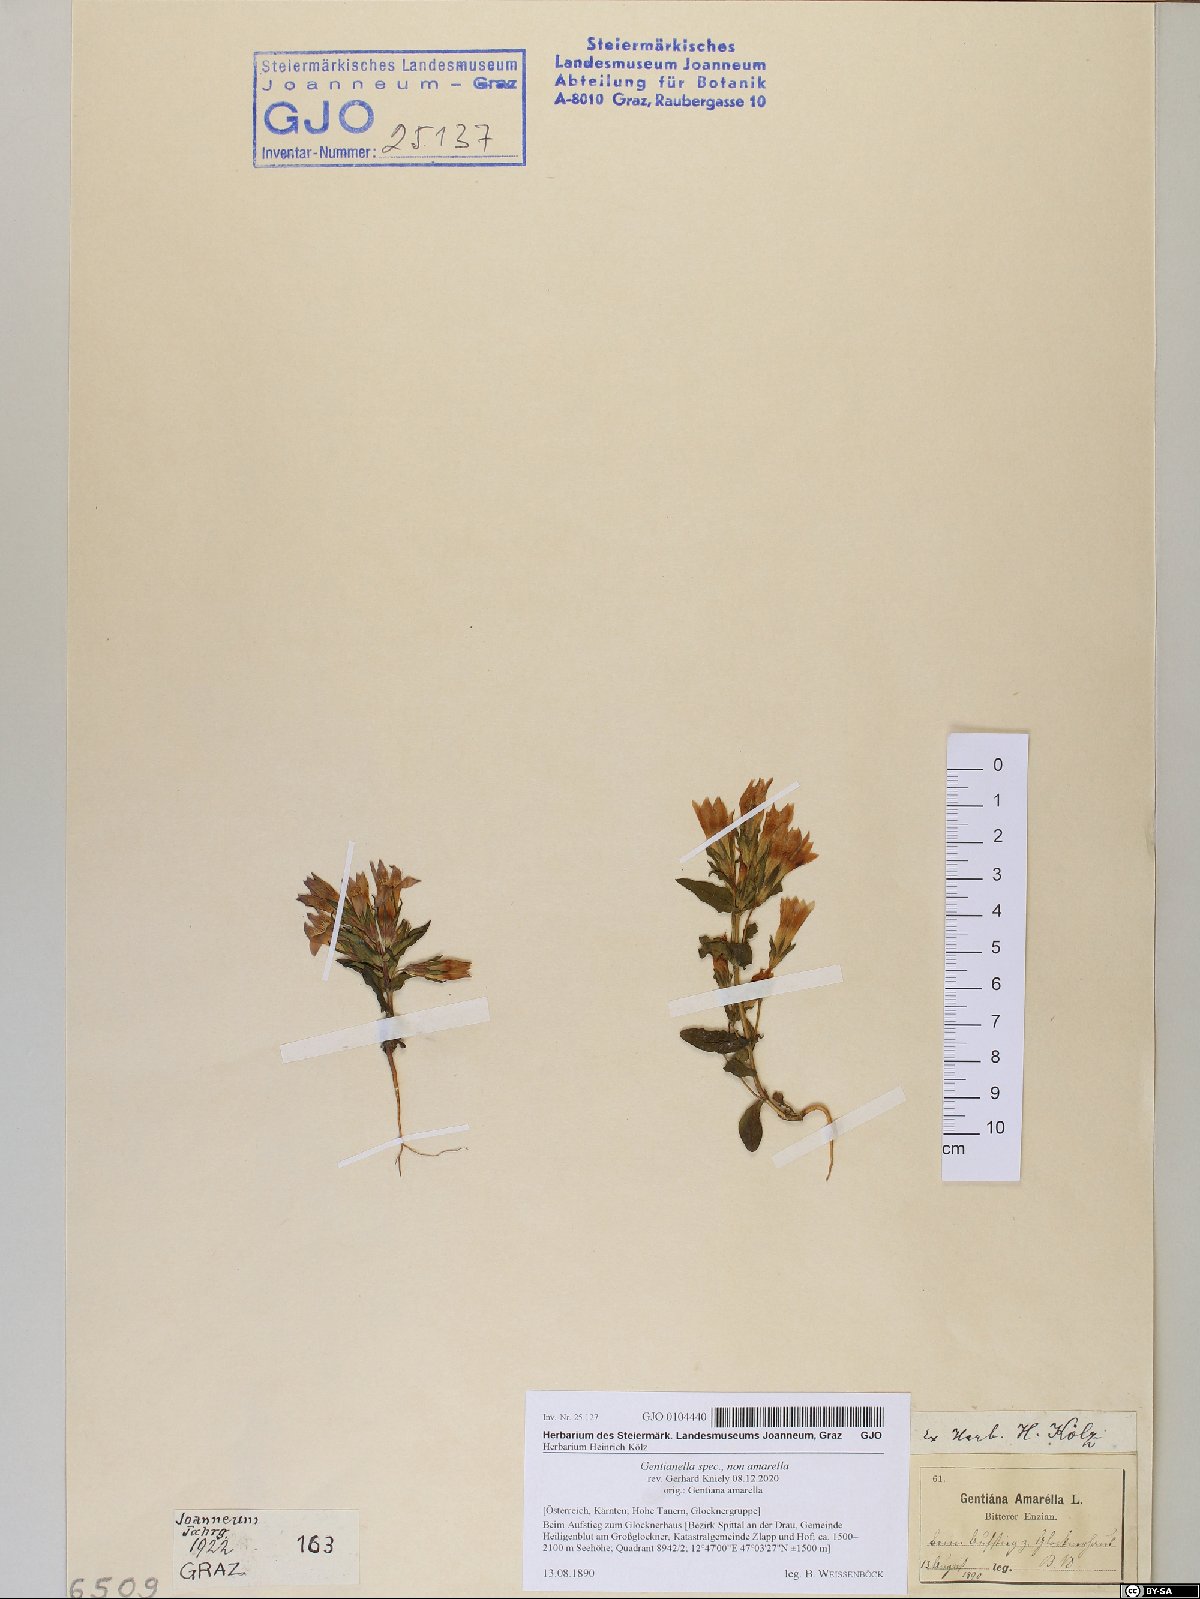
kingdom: Plantae
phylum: Tracheophyta
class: Magnoliopsida
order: Gentianales
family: Gentianaceae
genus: Gentianella
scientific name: Gentianella
